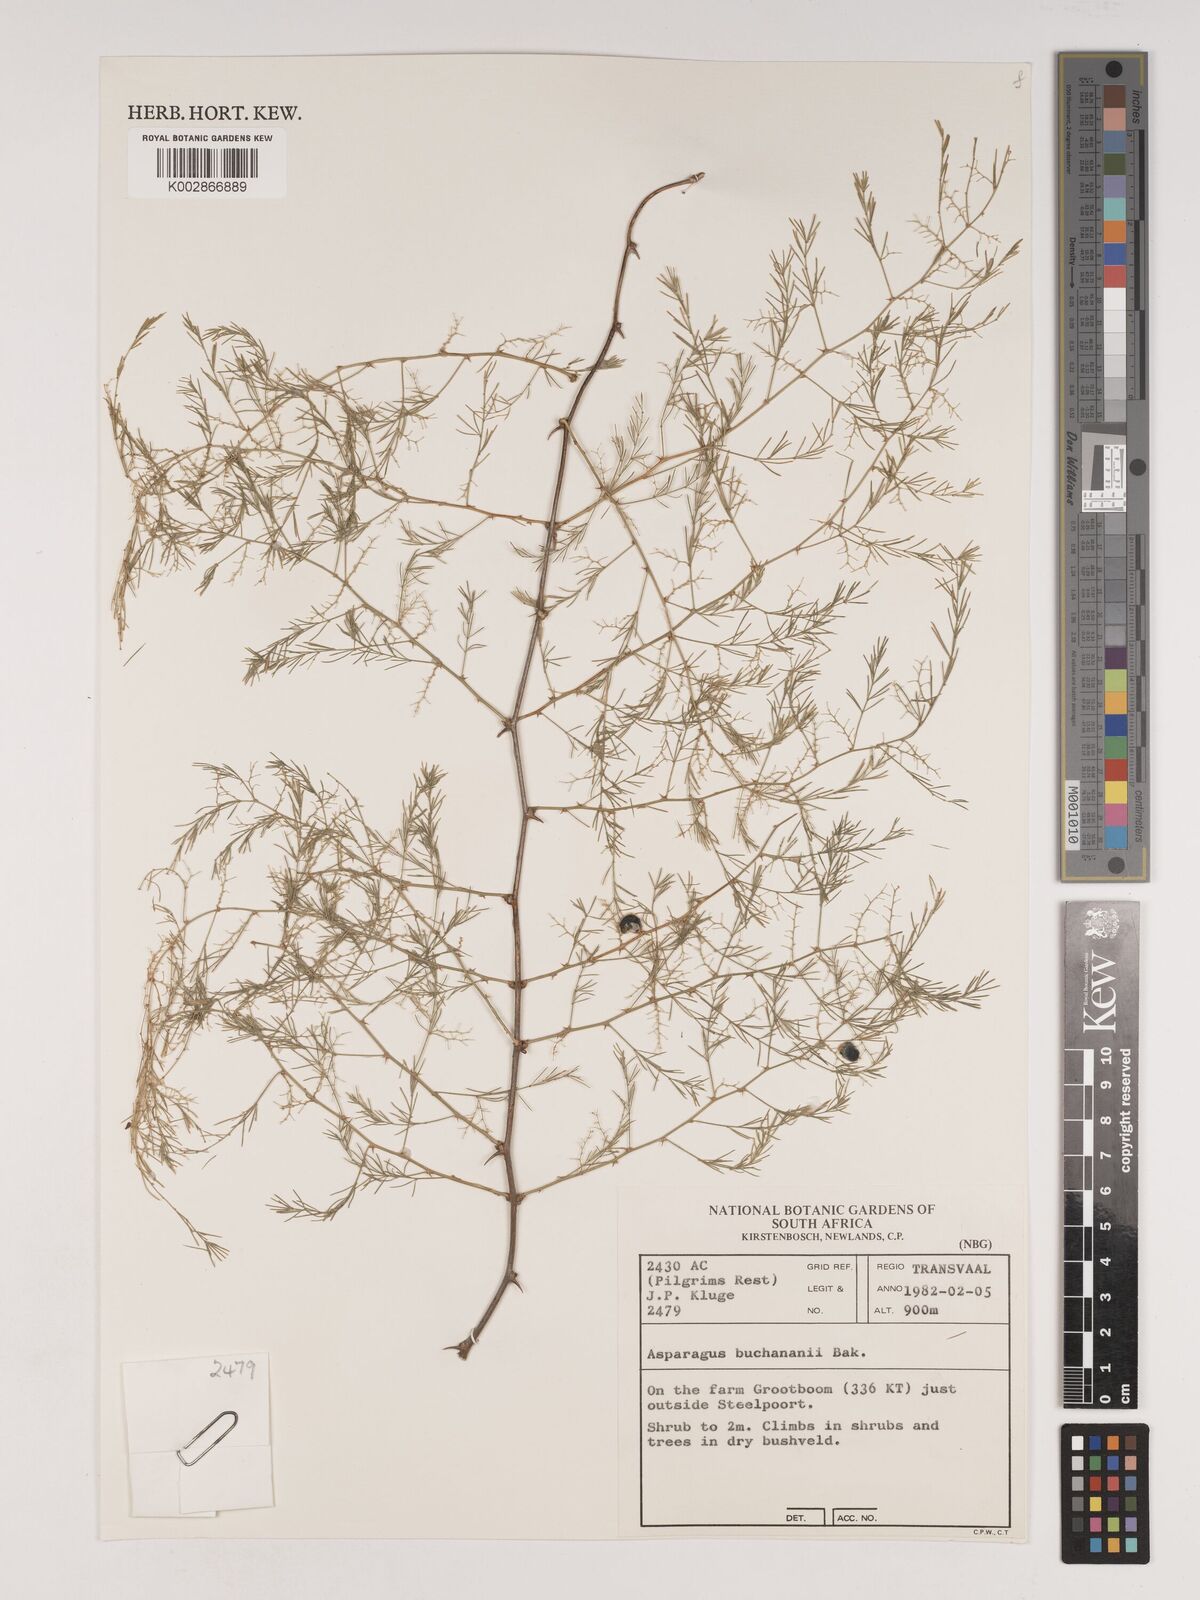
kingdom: Plantae
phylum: Tracheophyta
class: Liliopsida
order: Asparagales
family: Asparagaceae
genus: Asparagus
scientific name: Asparagus buchananii
